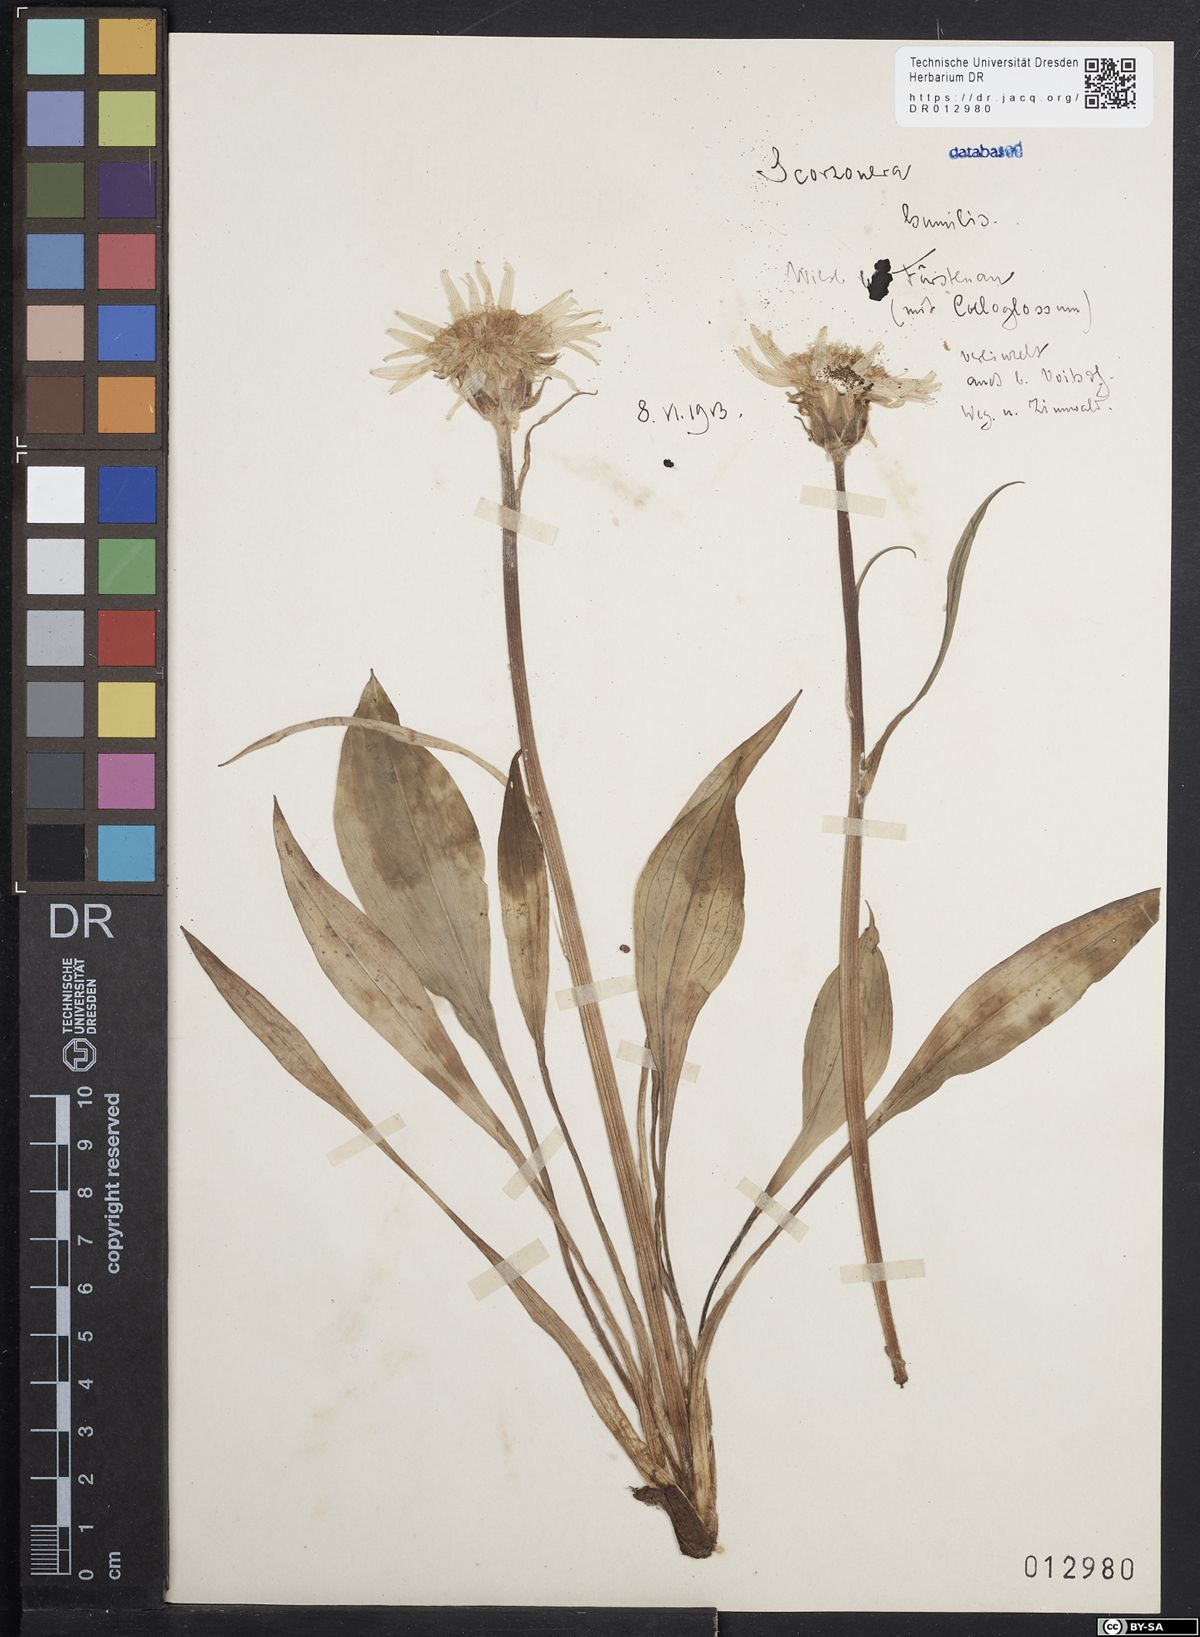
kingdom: Plantae
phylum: Tracheophyta
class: Magnoliopsida
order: Asterales
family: Asteraceae
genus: Scorzonera
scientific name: Scorzonera humilis
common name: Viper's-grass
